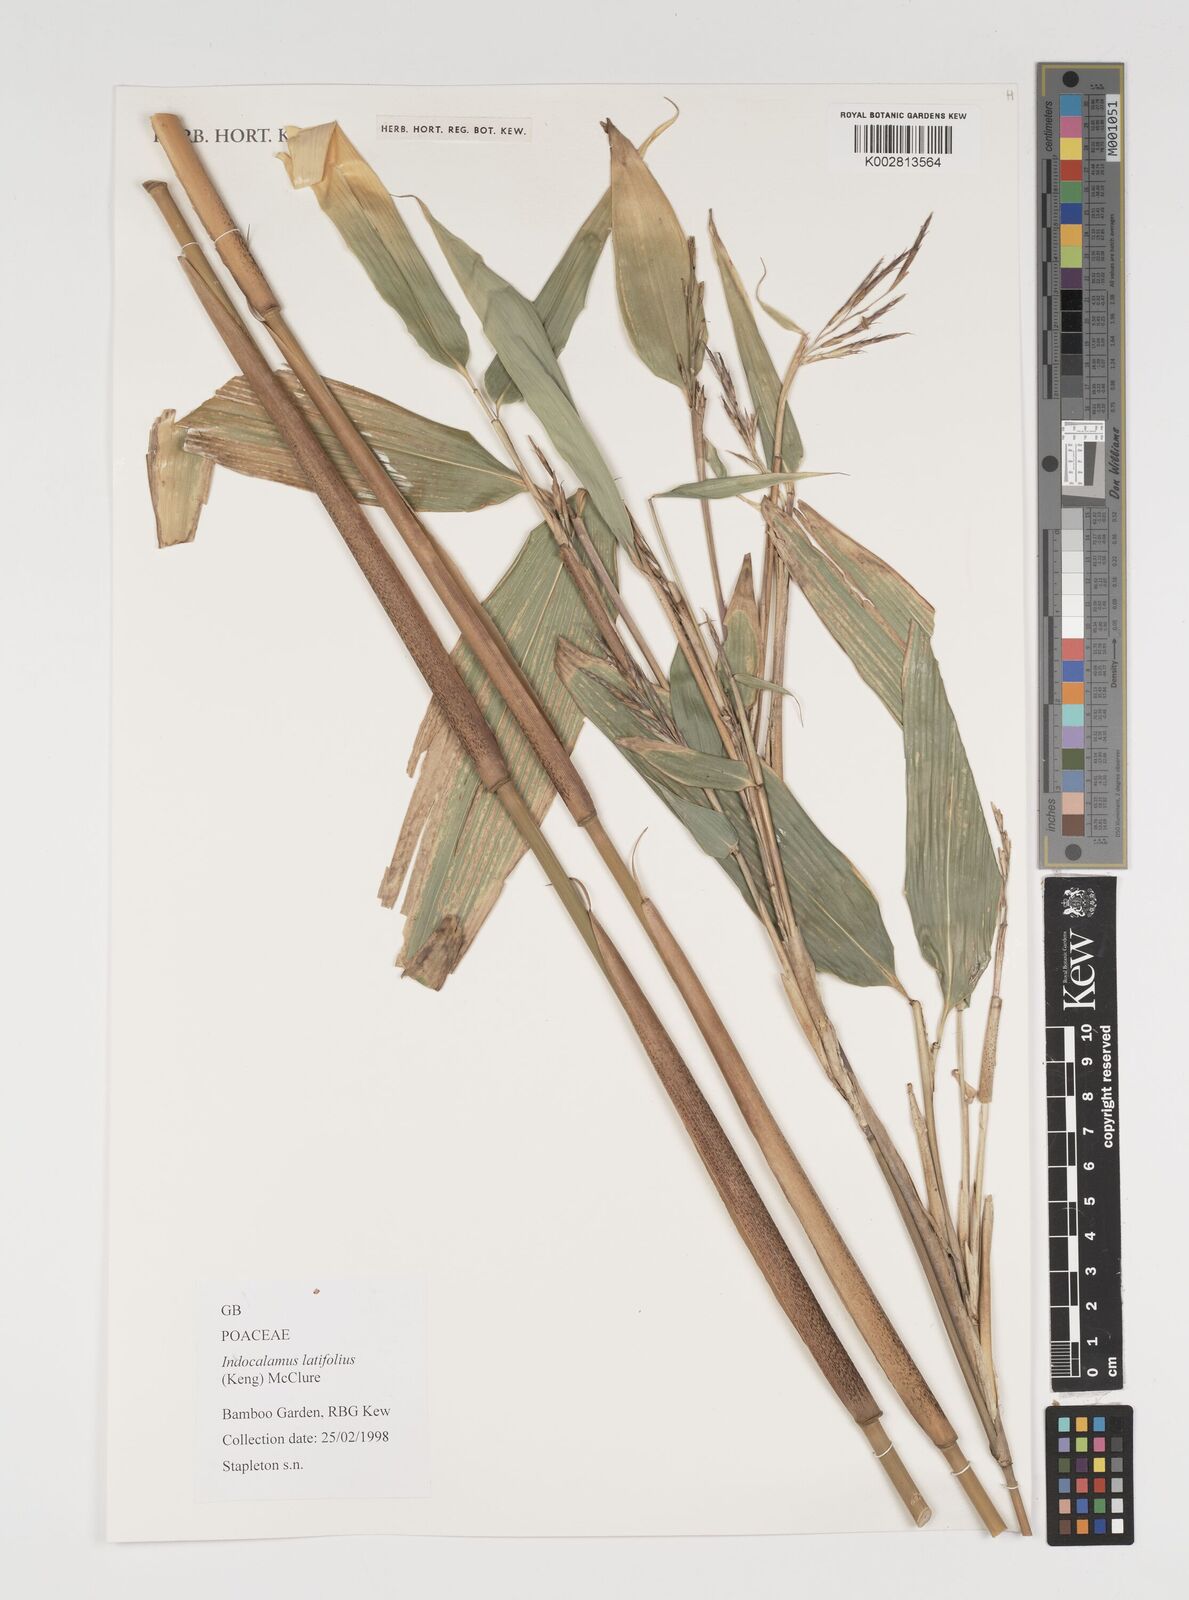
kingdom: Plantae
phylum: Tracheophyta
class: Liliopsida
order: Poales
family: Poaceae
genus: Indocalamus
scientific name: Indocalamus latifolius
